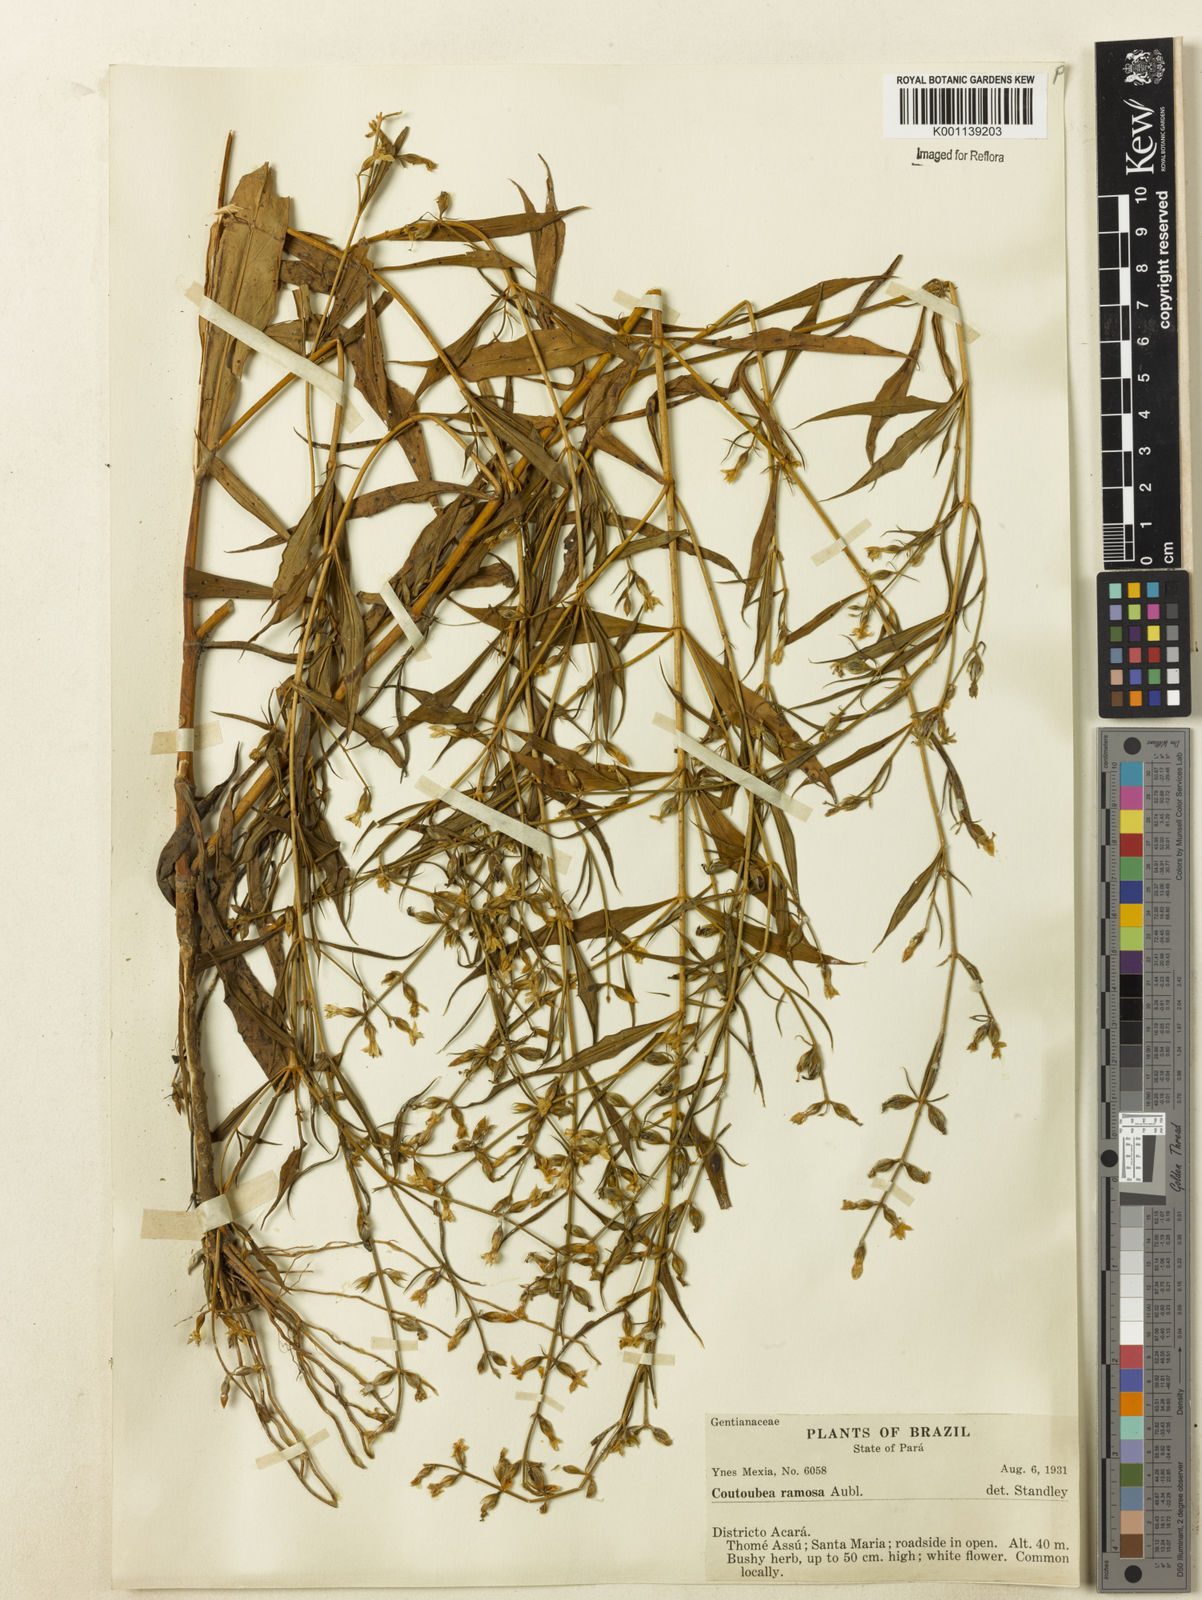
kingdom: Plantae
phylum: Tracheophyta
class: Magnoliopsida
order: Gentianales
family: Gentianaceae
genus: Coutoubea
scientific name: Coutoubea ramosa
